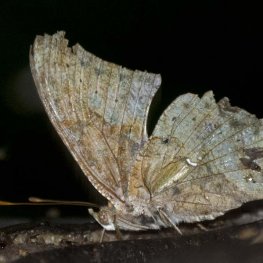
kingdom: Animalia
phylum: Arthropoda
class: Insecta
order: Lepidoptera
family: Nymphalidae
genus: Polygonia
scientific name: Polygonia interrogationis
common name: Question Mark
